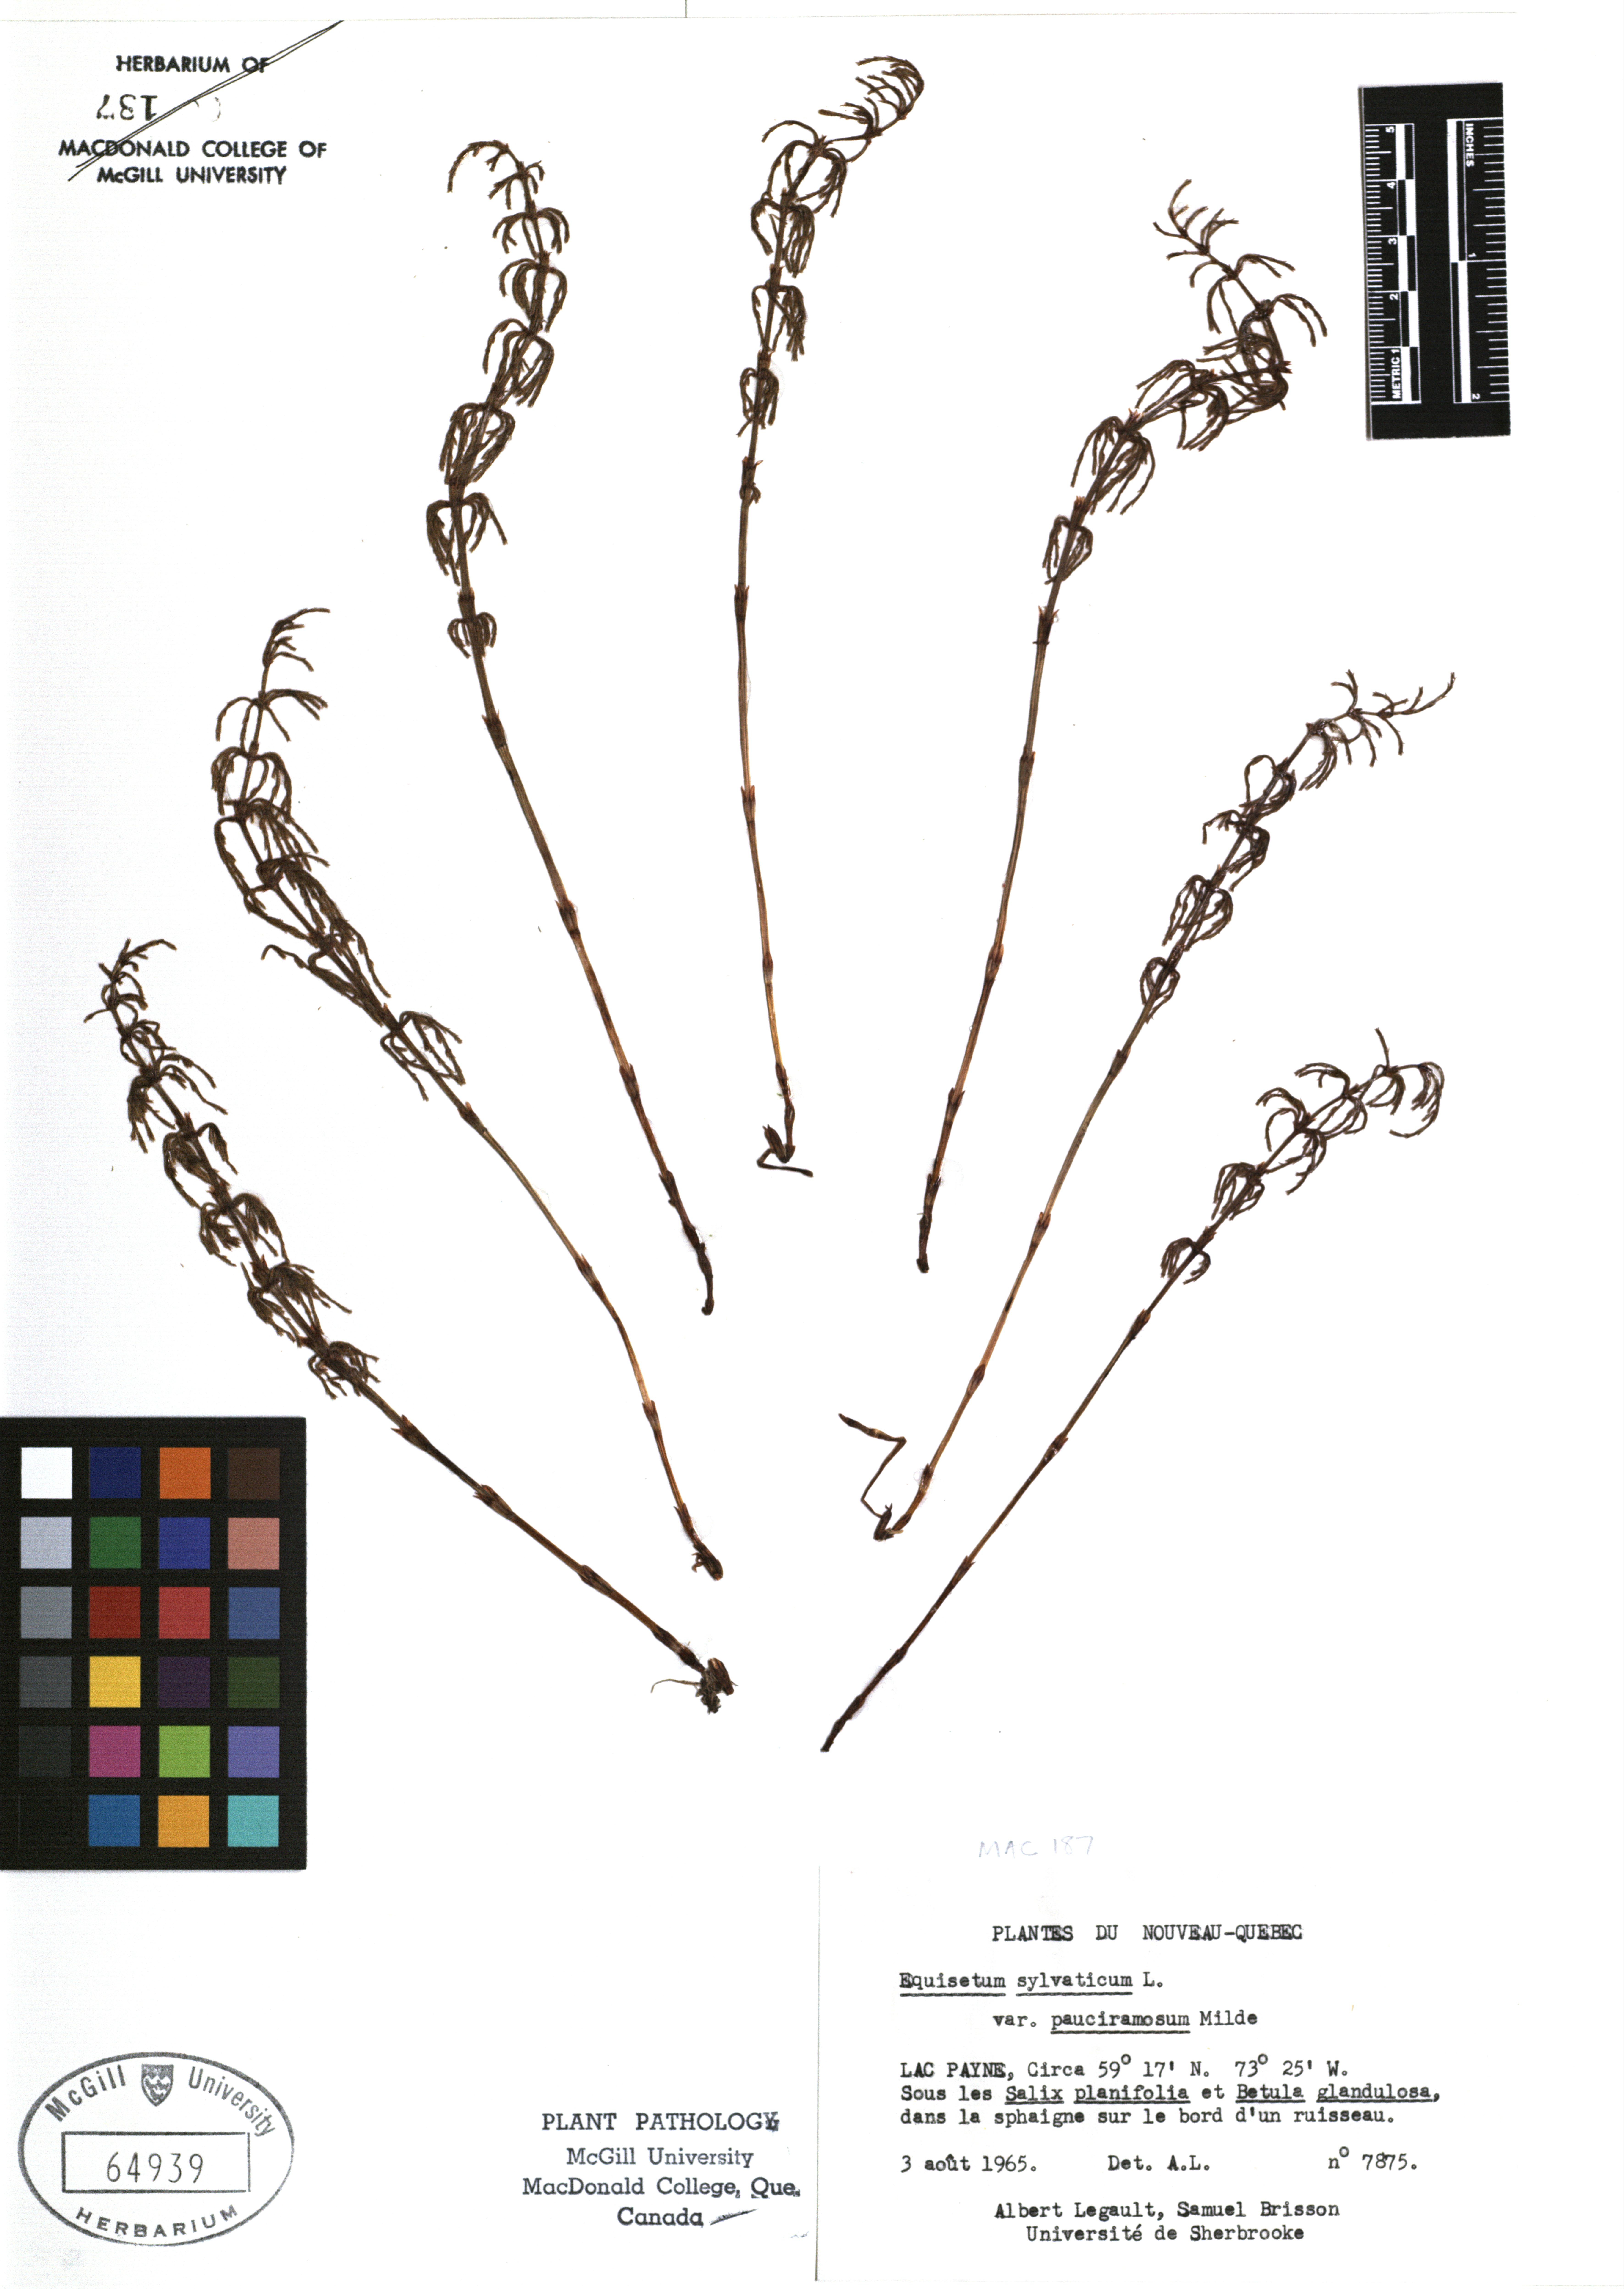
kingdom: Plantae
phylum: Tracheophyta
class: Polypodiopsida
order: Equisetales
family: Equisetaceae
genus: Equisetum
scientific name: Equisetum sylvaticum
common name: Wood horsetail
